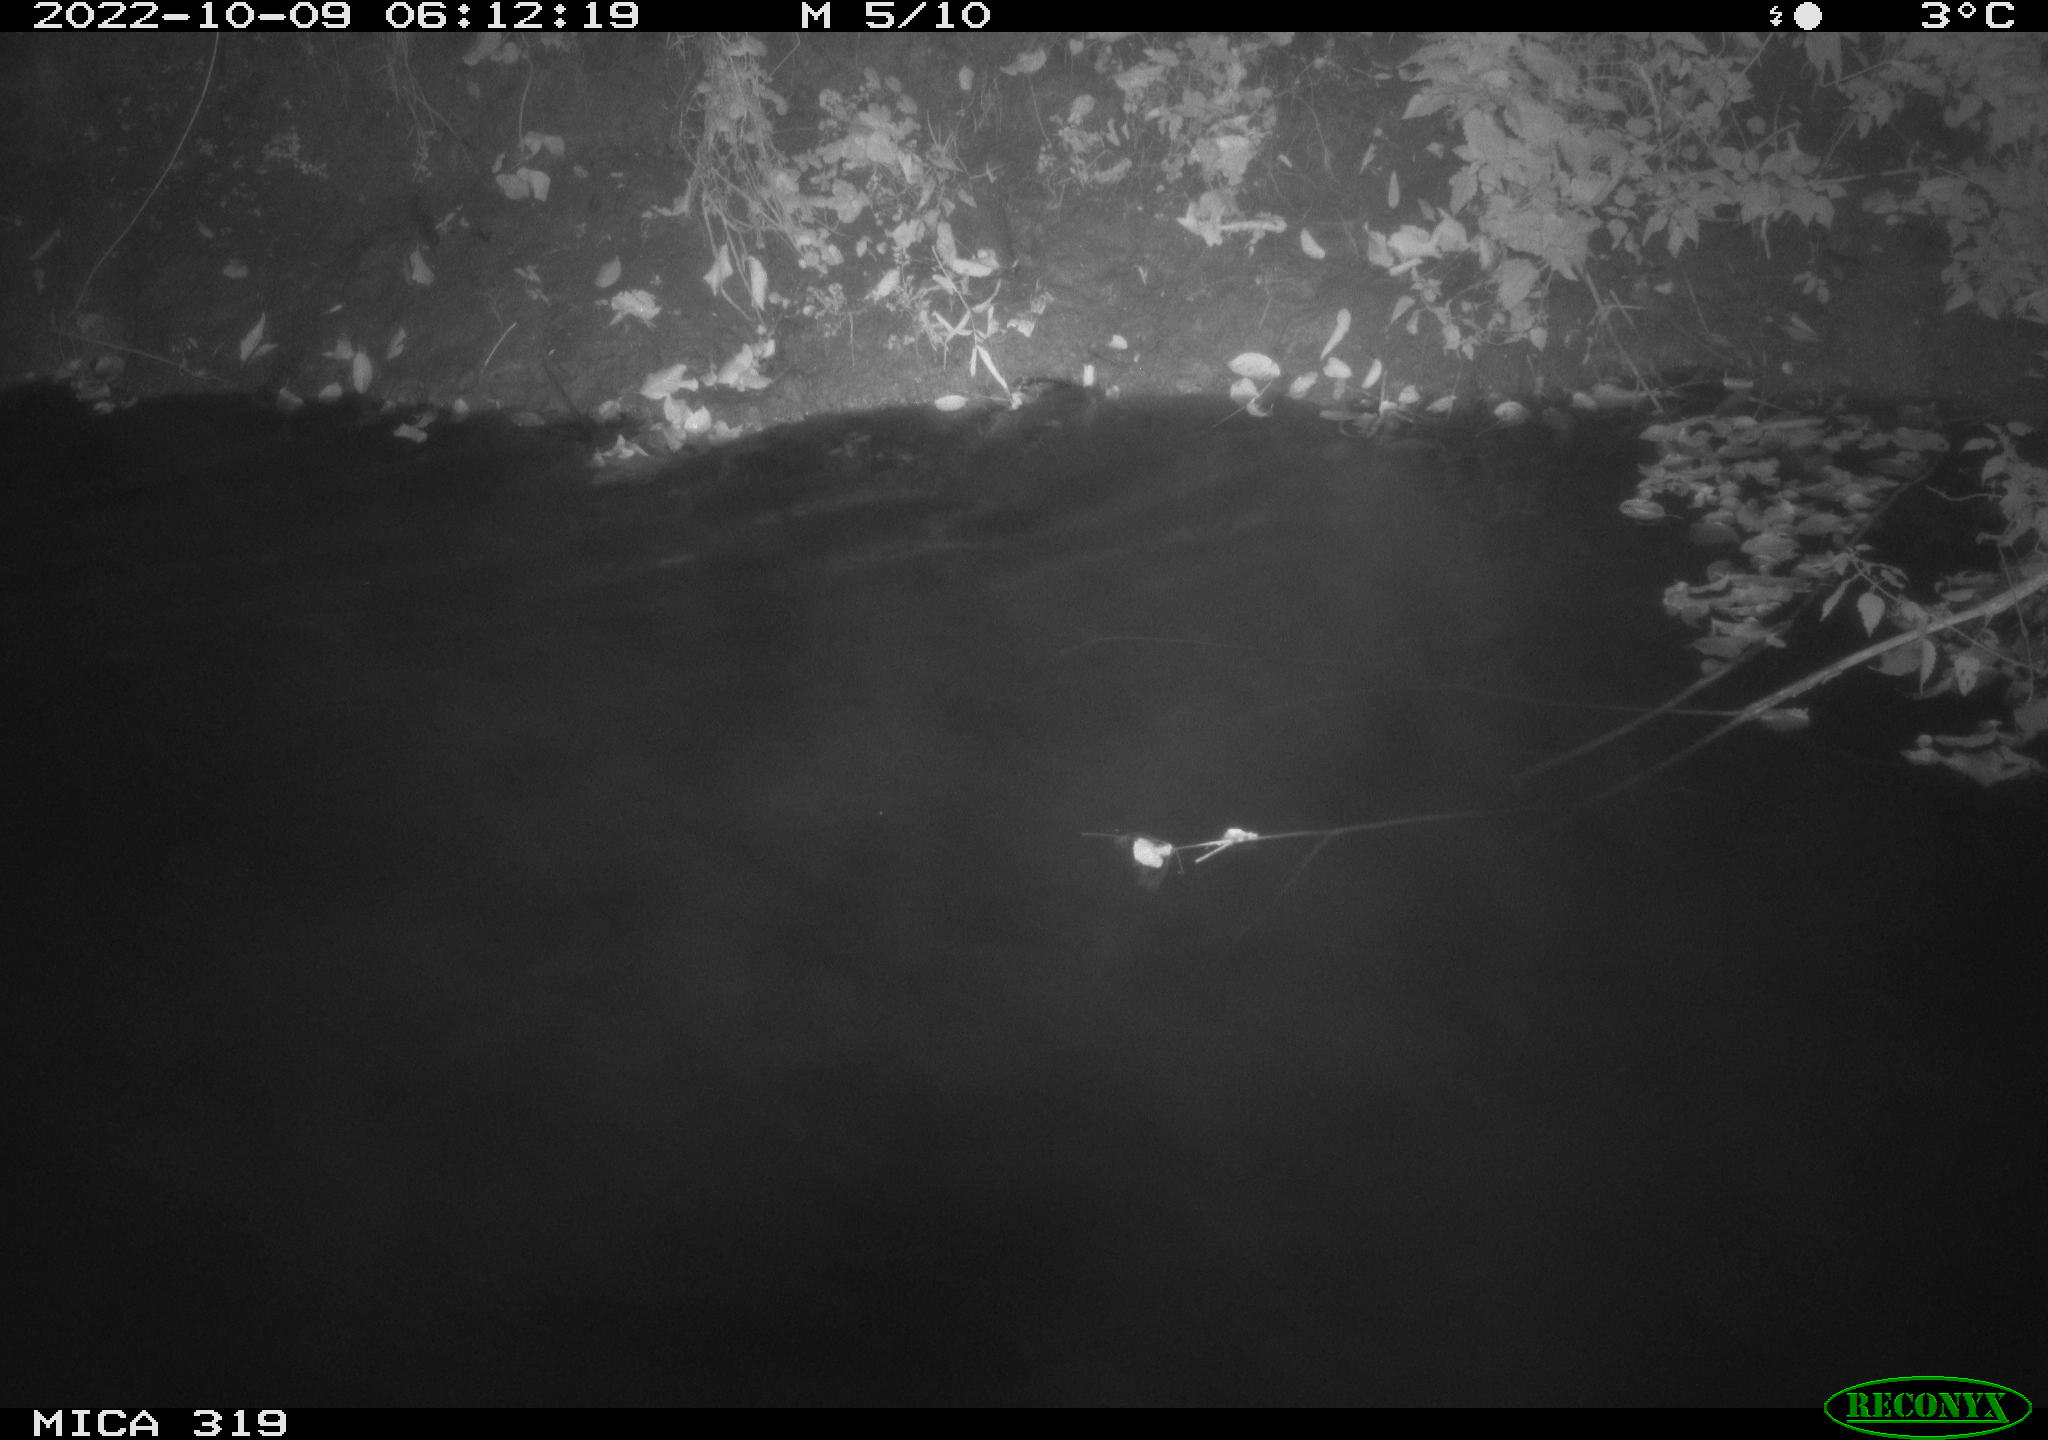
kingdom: Animalia
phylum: Chordata
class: Aves
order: Anseriformes
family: Anatidae
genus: Anas
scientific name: Anas
